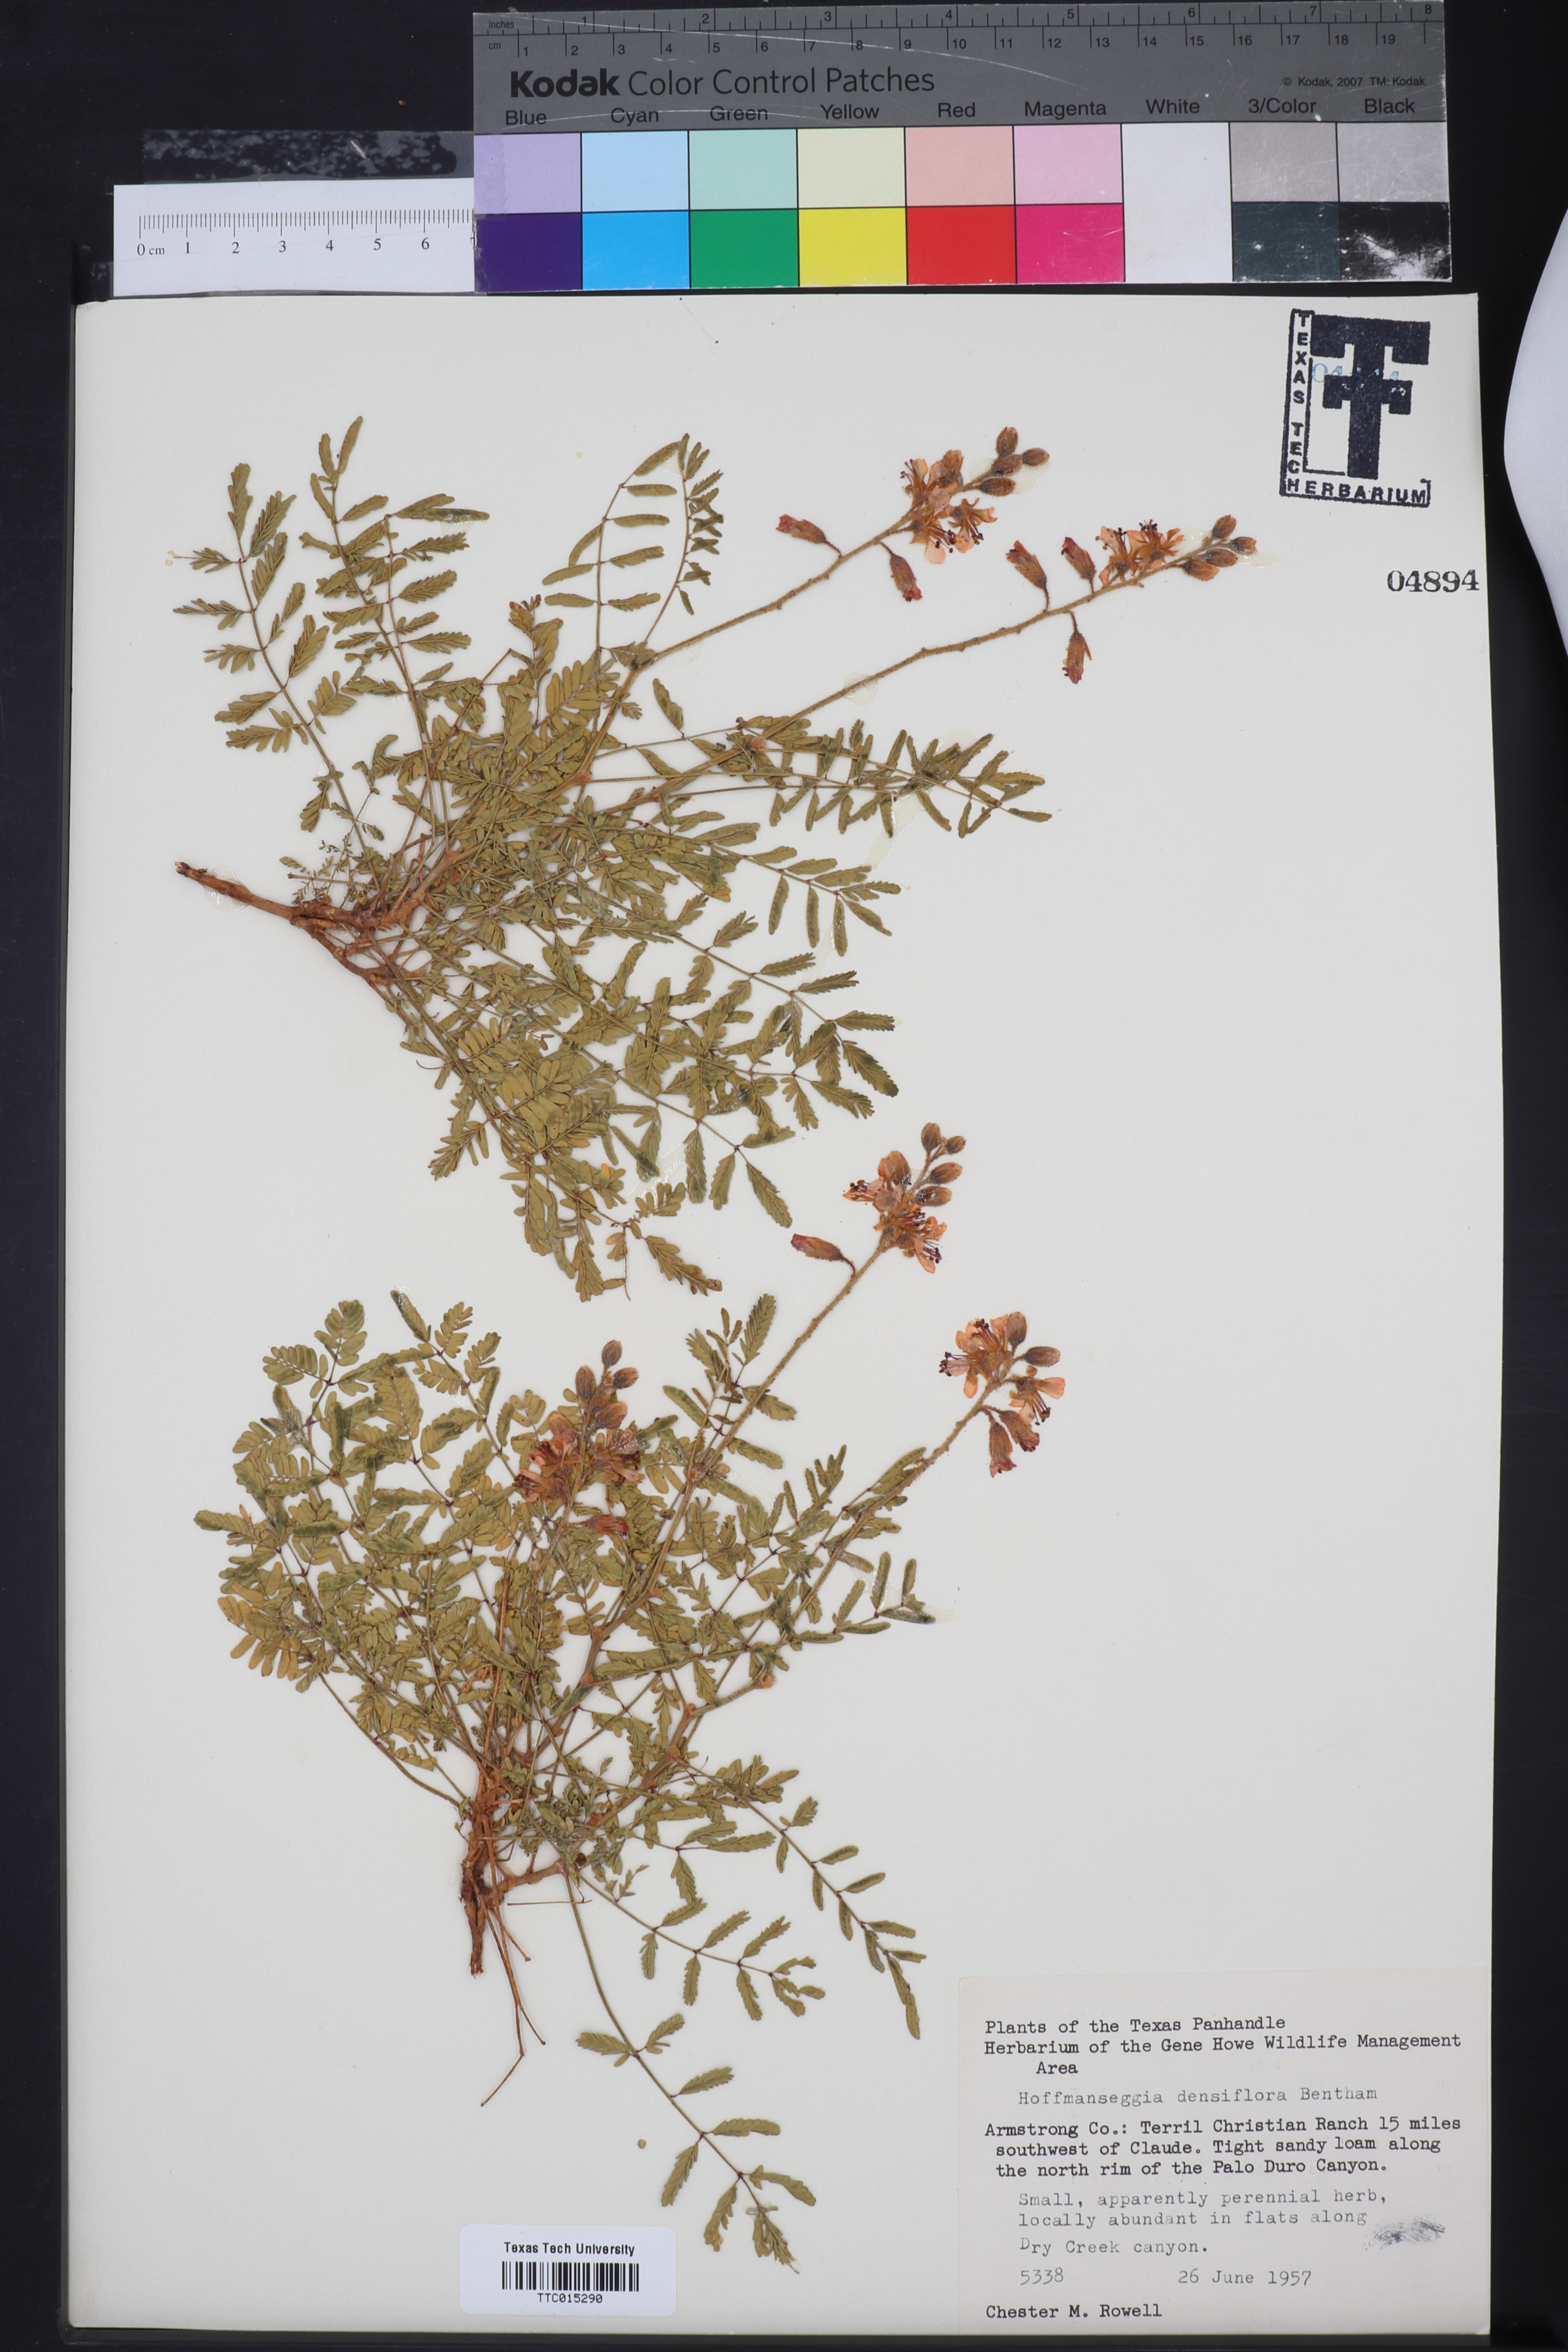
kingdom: Plantae
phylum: Tracheophyta
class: Magnoliopsida
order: Fabales
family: Fabaceae
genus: Hoffmannseggia
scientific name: Hoffmannseggia glauca
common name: Pignut
